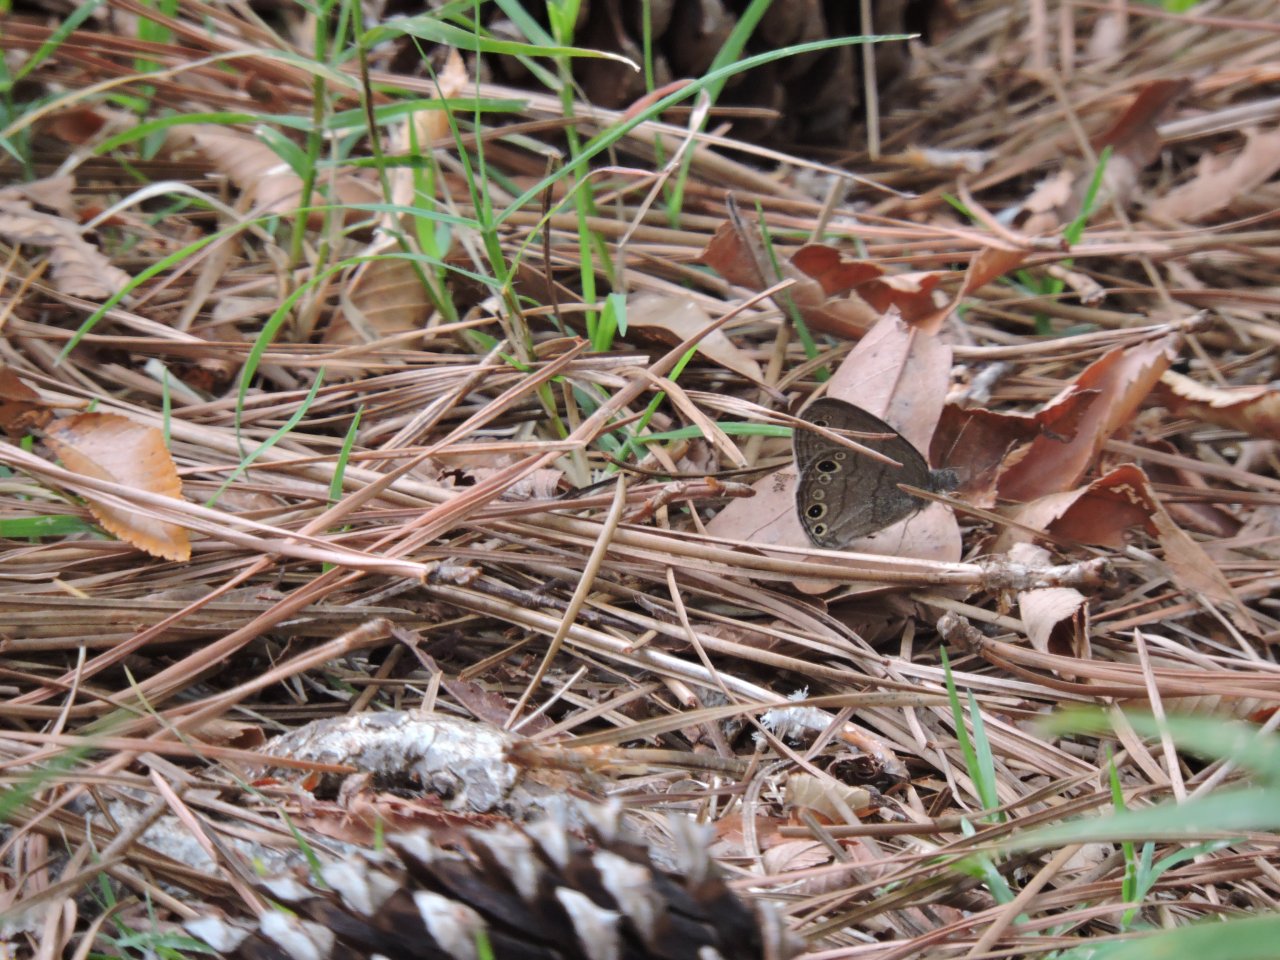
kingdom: Animalia
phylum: Arthropoda
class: Insecta
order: Lepidoptera
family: Nymphalidae
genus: Hermeuptychia
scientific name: Hermeuptychia hermes
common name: Carolina Satyr
